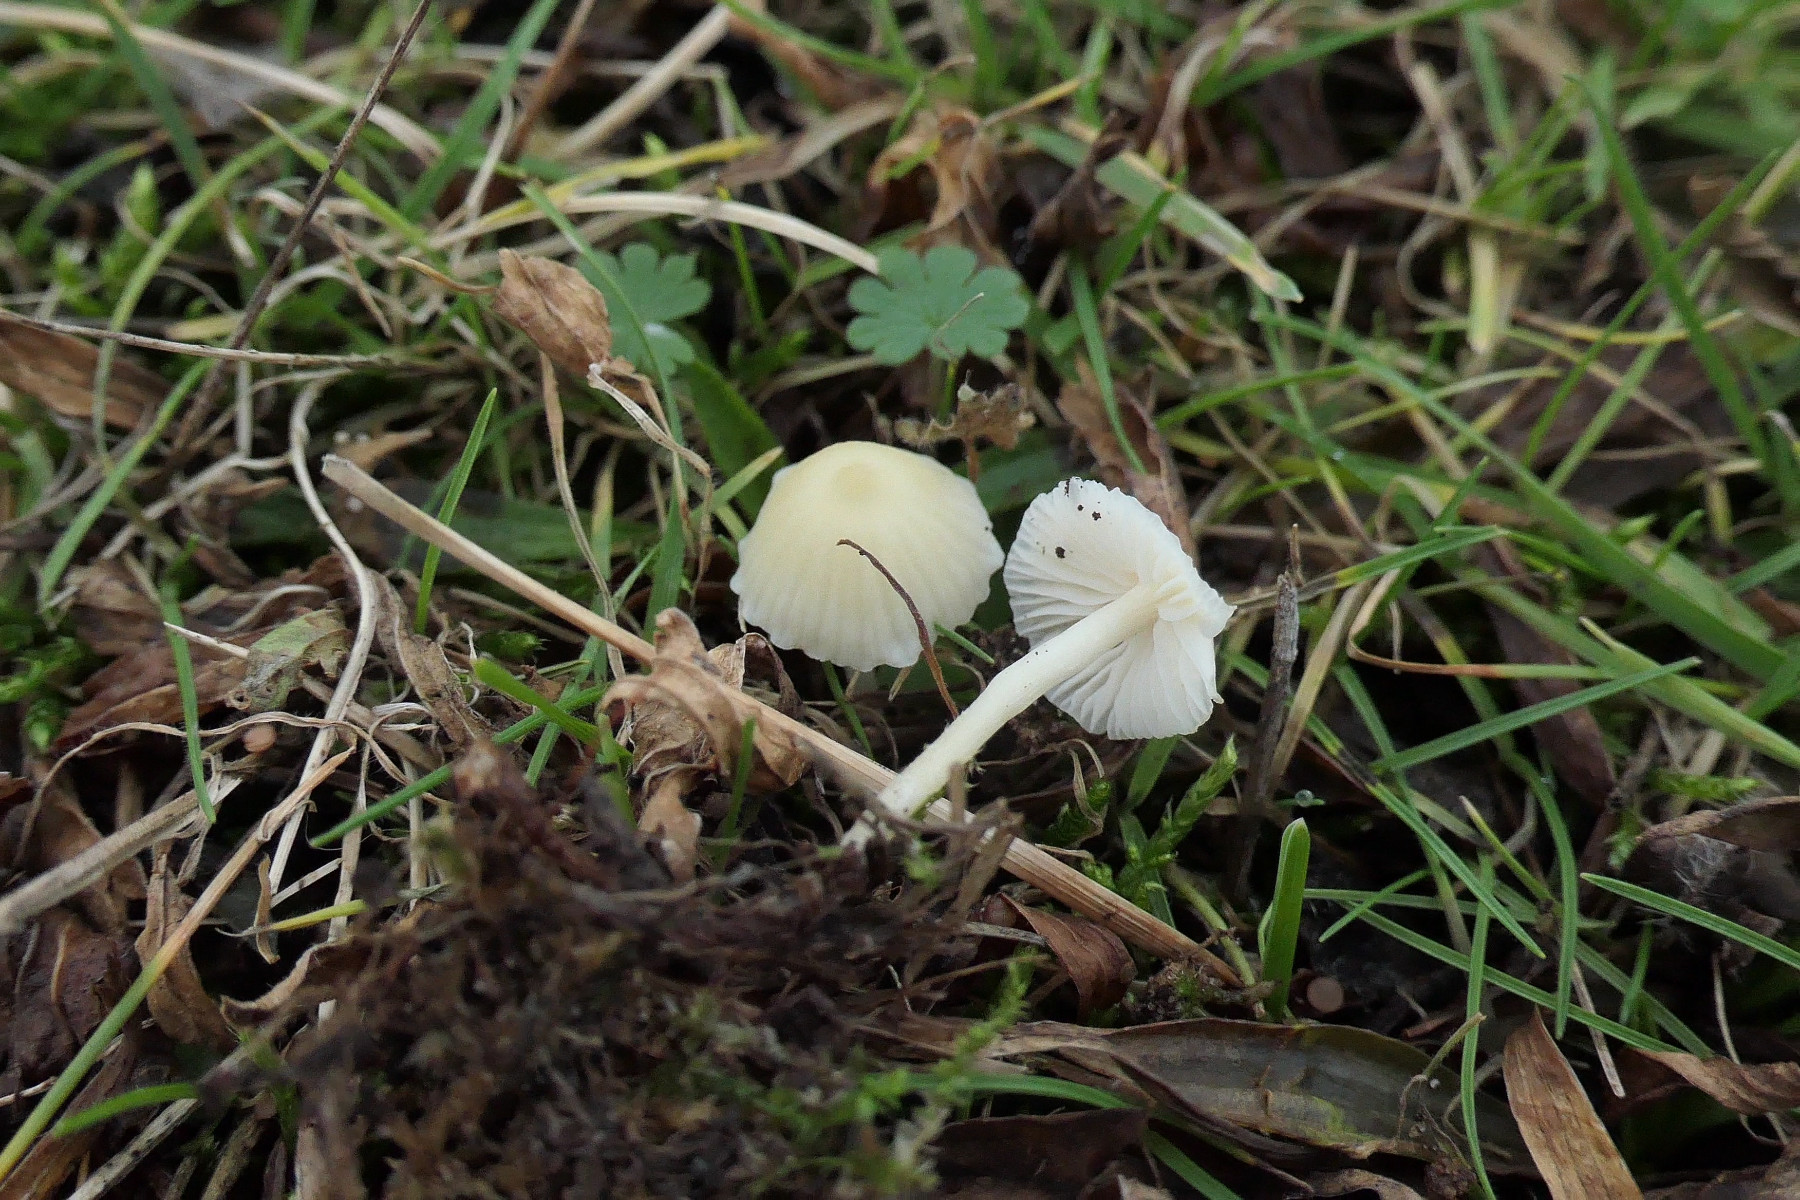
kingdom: Fungi
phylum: Basidiomycota
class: Agaricomycetes
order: Agaricales
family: Mycenaceae
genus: Atheniella
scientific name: Atheniella flavoalba
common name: gulhvid huesvamp
